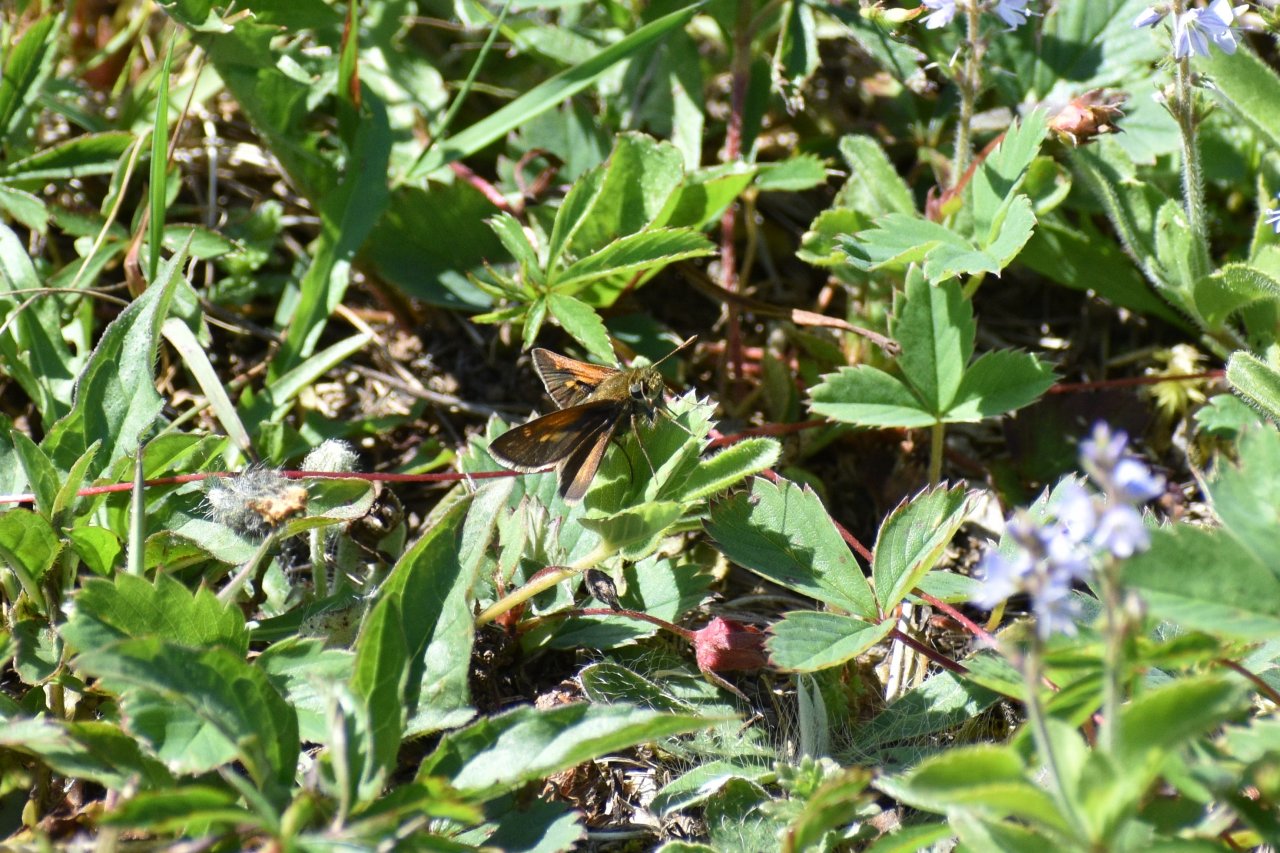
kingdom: Animalia
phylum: Arthropoda
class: Insecta
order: Lepidoptera
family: Hesperiidae
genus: Polites
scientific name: Polites themistocles
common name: Tawny-edged Skipper
